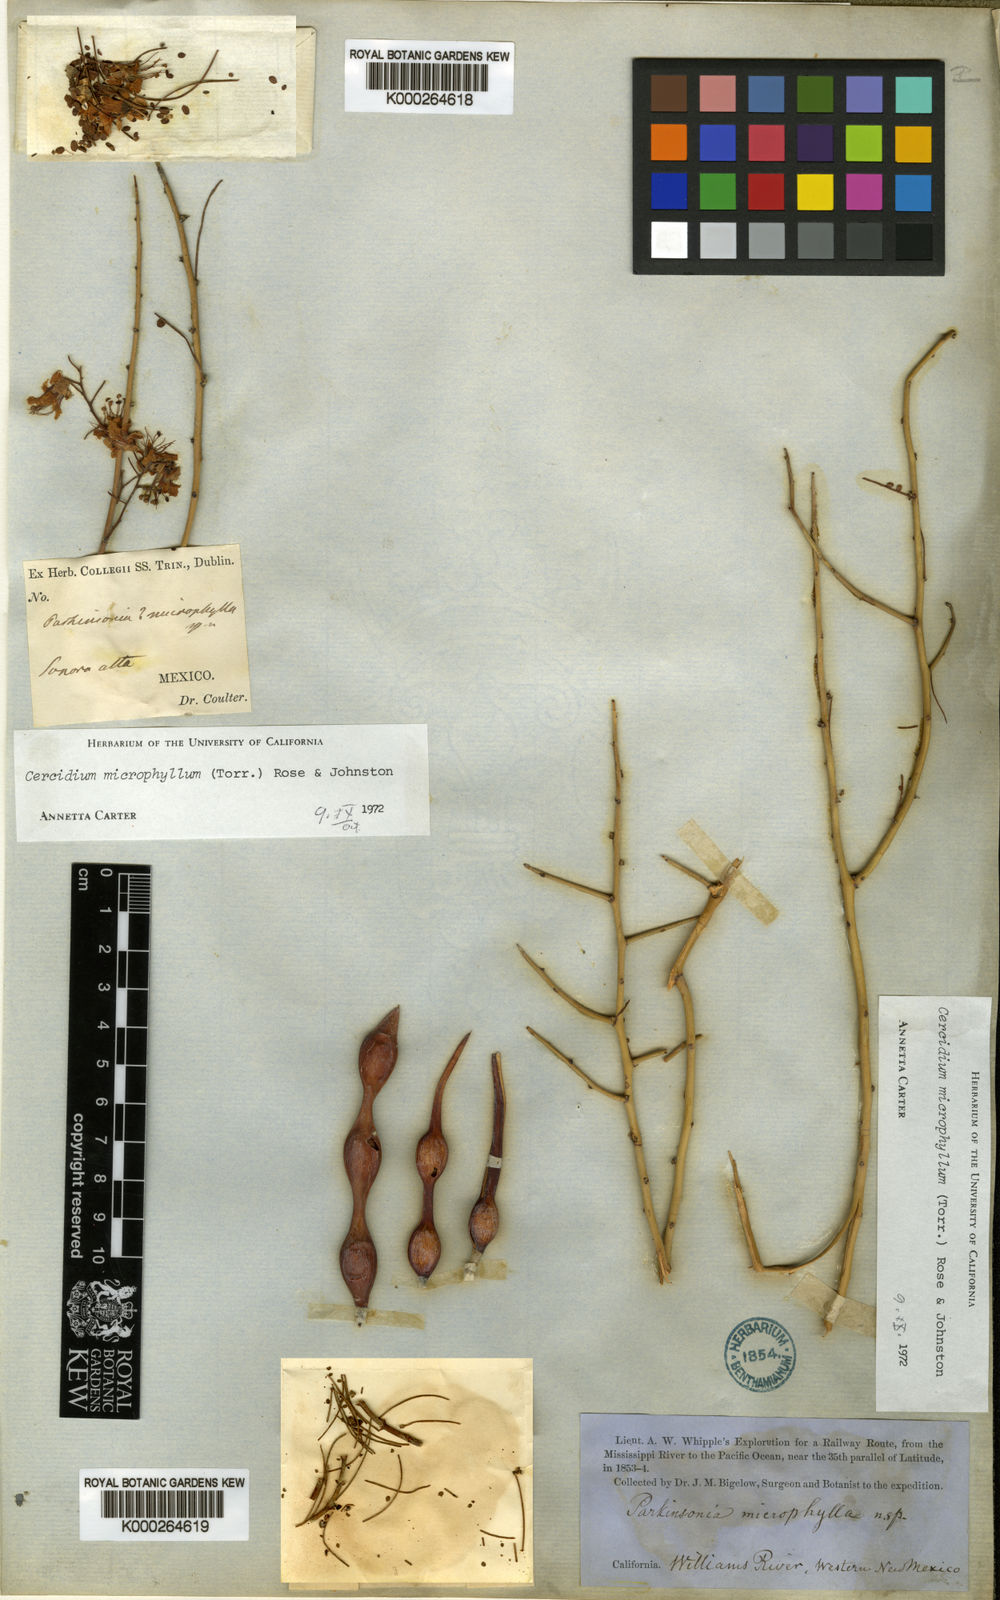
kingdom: Plantae
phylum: Tracheophyta
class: Magnoliopsida
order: Fabales
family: Fabaceae
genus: Parkinsonia
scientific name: Parkinsonia microphylla
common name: Yellow paloverde
